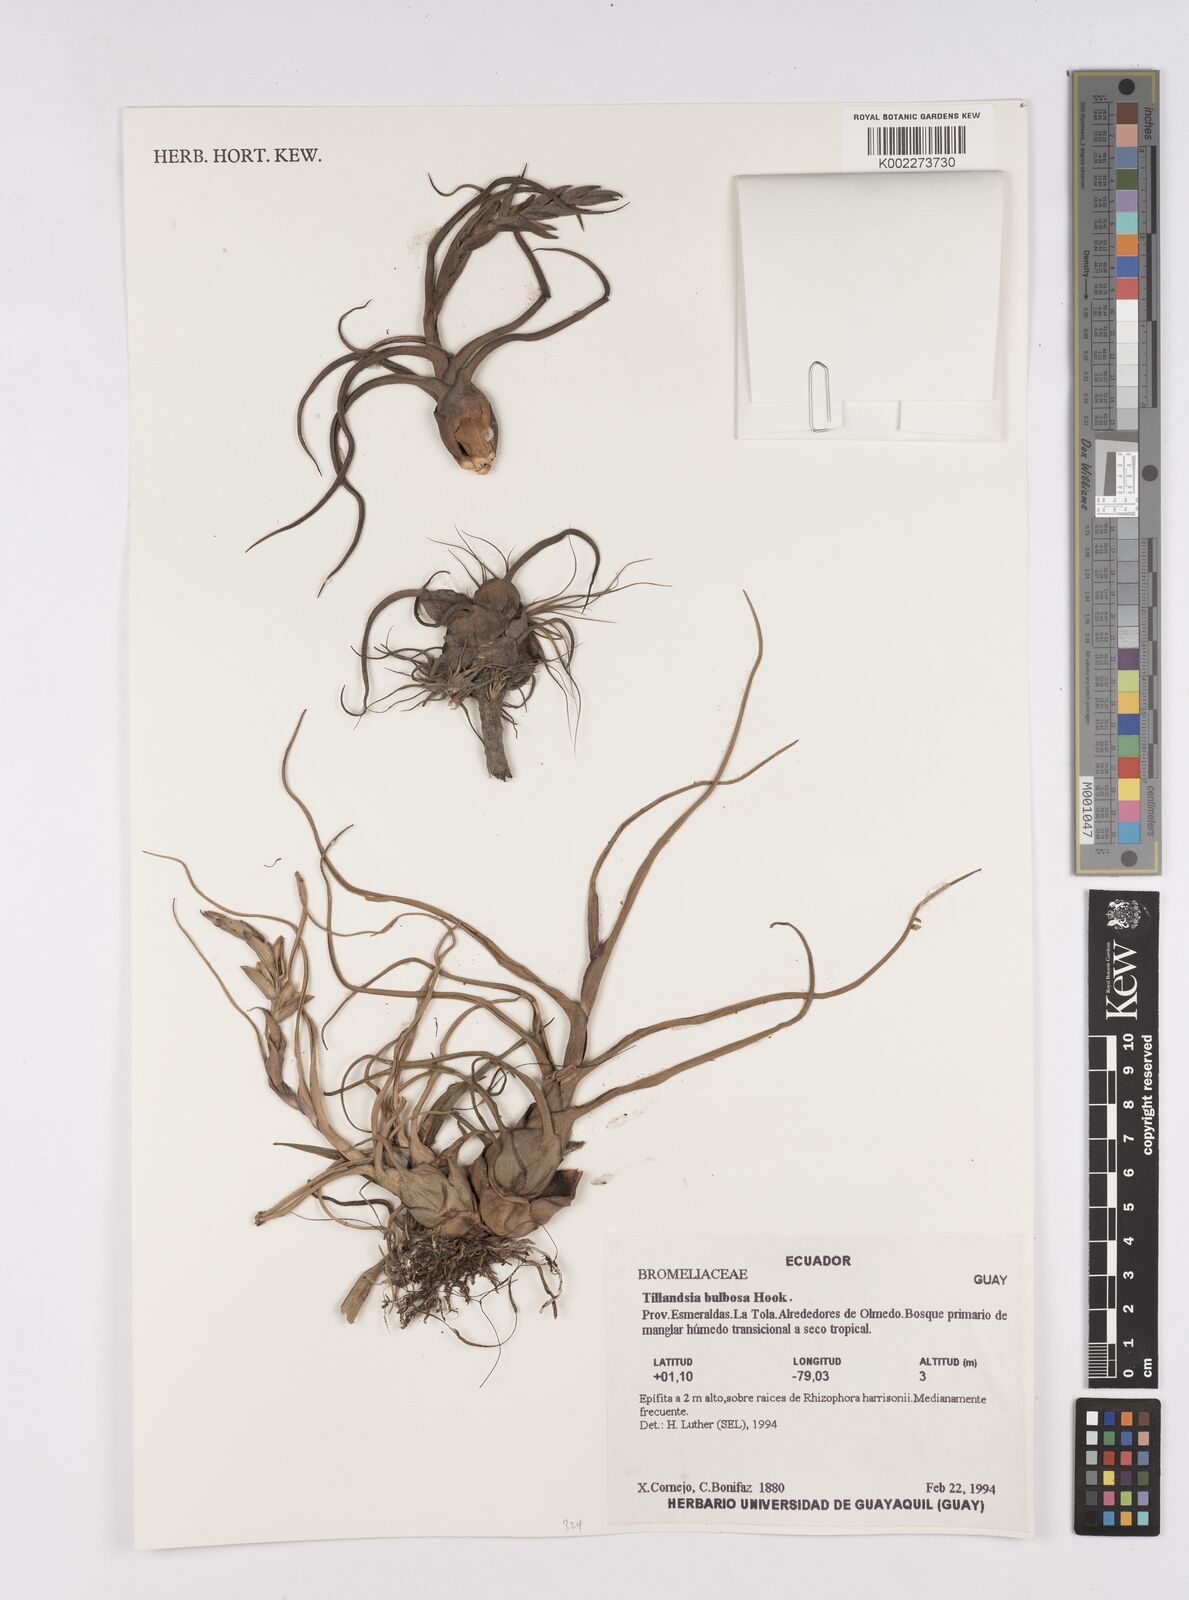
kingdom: Plantae
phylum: Tracheophyta
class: Liliopsida
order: Poales
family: Bromeliaceae
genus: Tillandsia
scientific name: Tillandsia bulbosa
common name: Bulbous airplant
